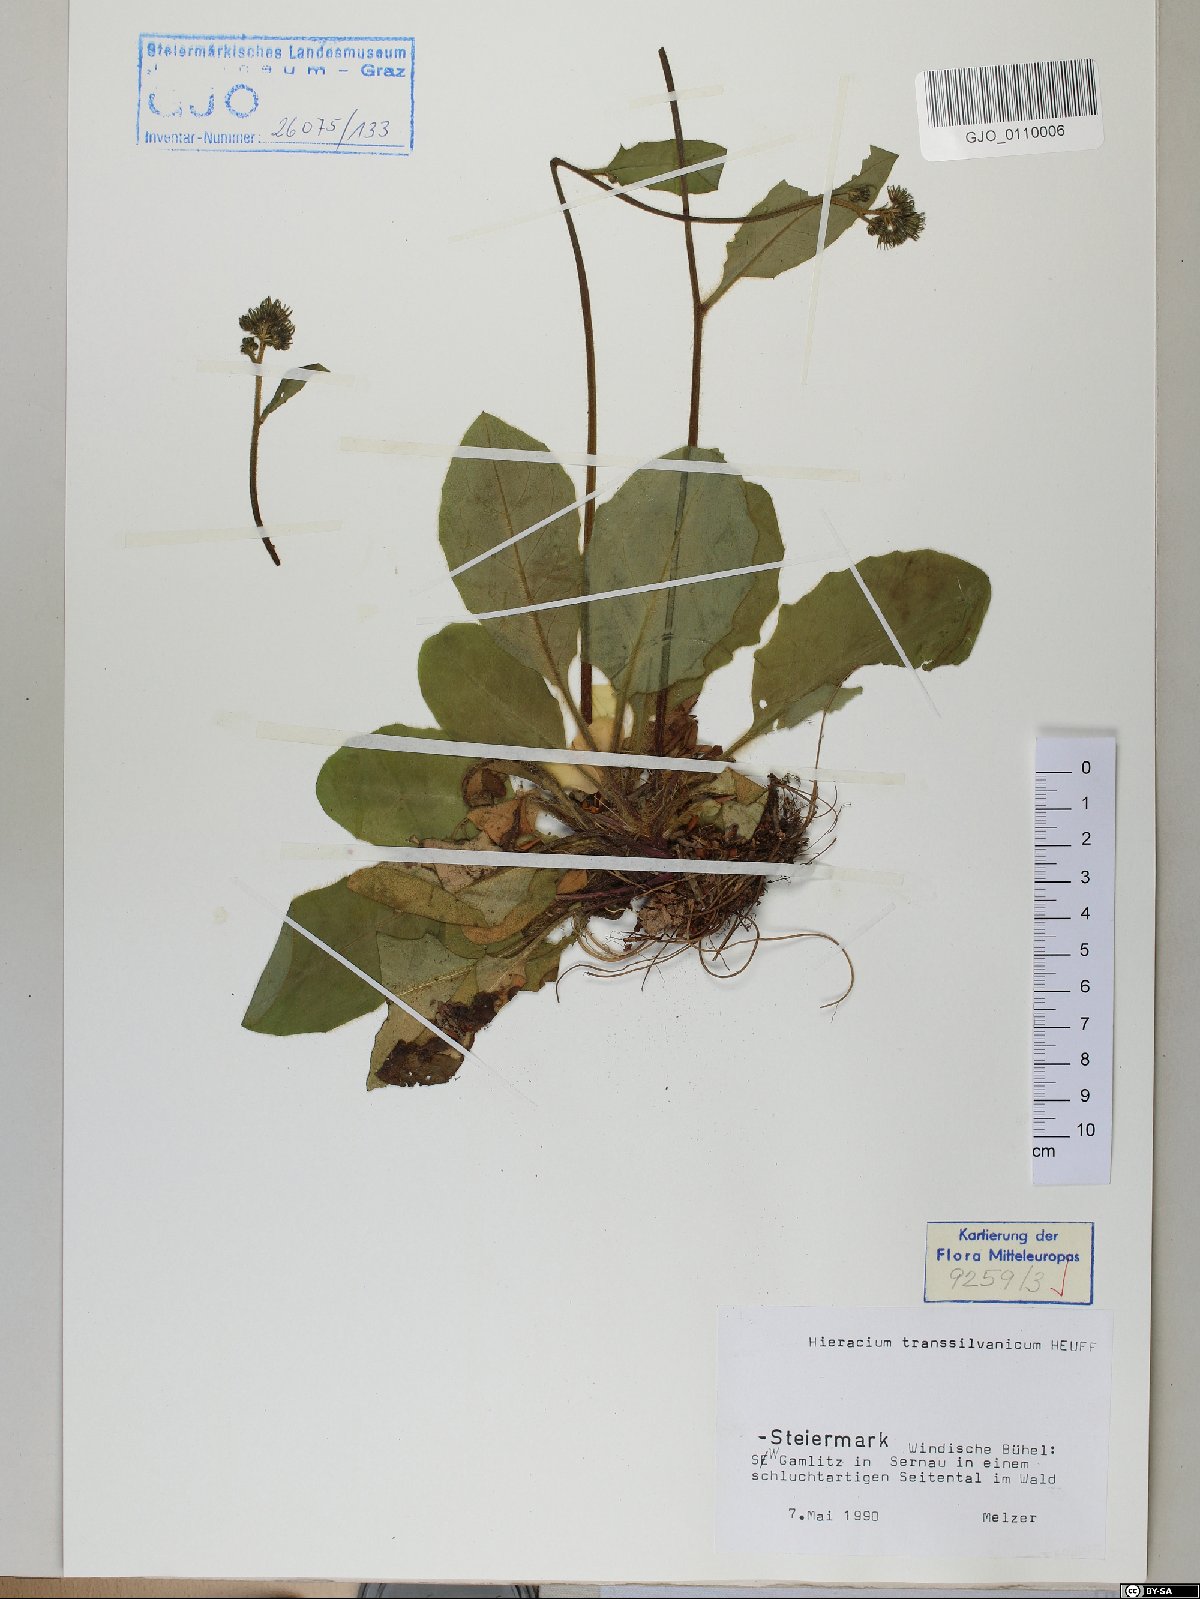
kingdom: Plantae
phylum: Tracheophyta
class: Magnoliopsida
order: Asterales
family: Asteraceae
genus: Hieracium
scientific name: Hieracium transylvanicum
